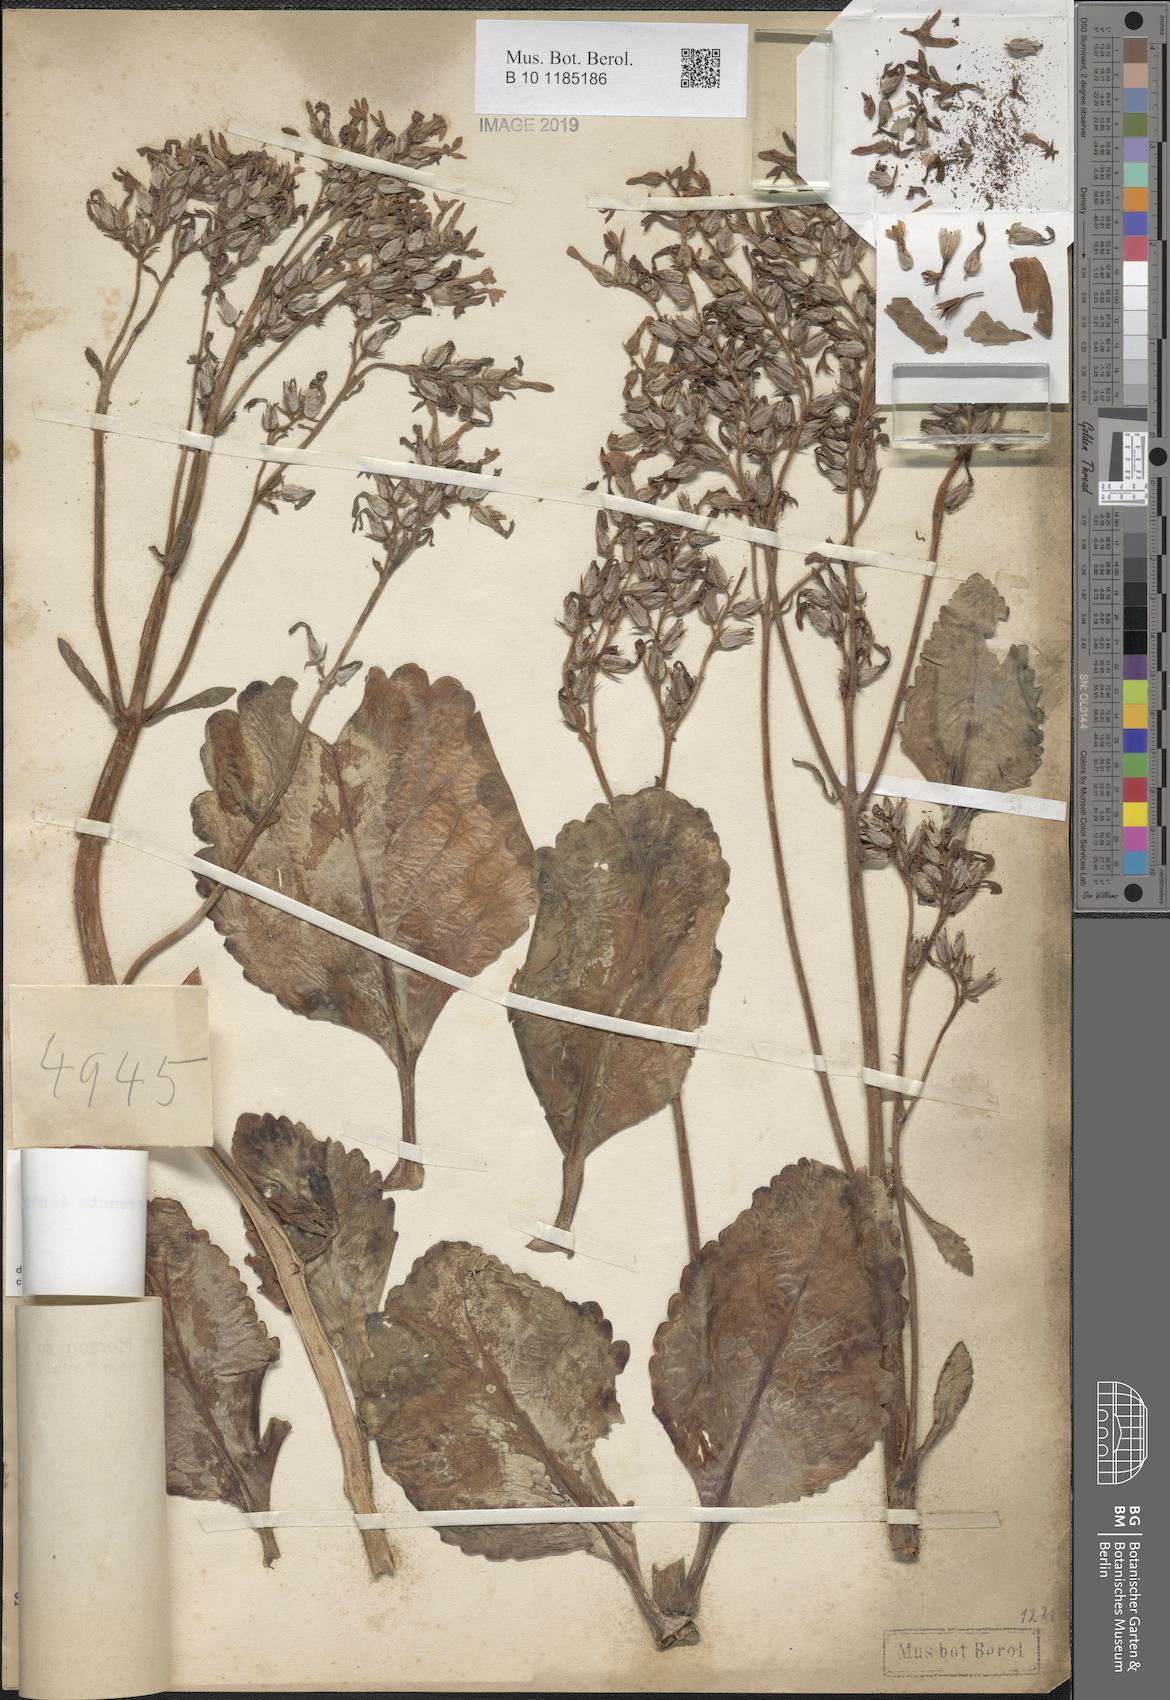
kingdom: Plantae
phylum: Tracheophyta
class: Magnoliopsida
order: Saxifragales
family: Crassulaceae
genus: Kalanchoe
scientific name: Kalanchoe crenata
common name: Neverdie
